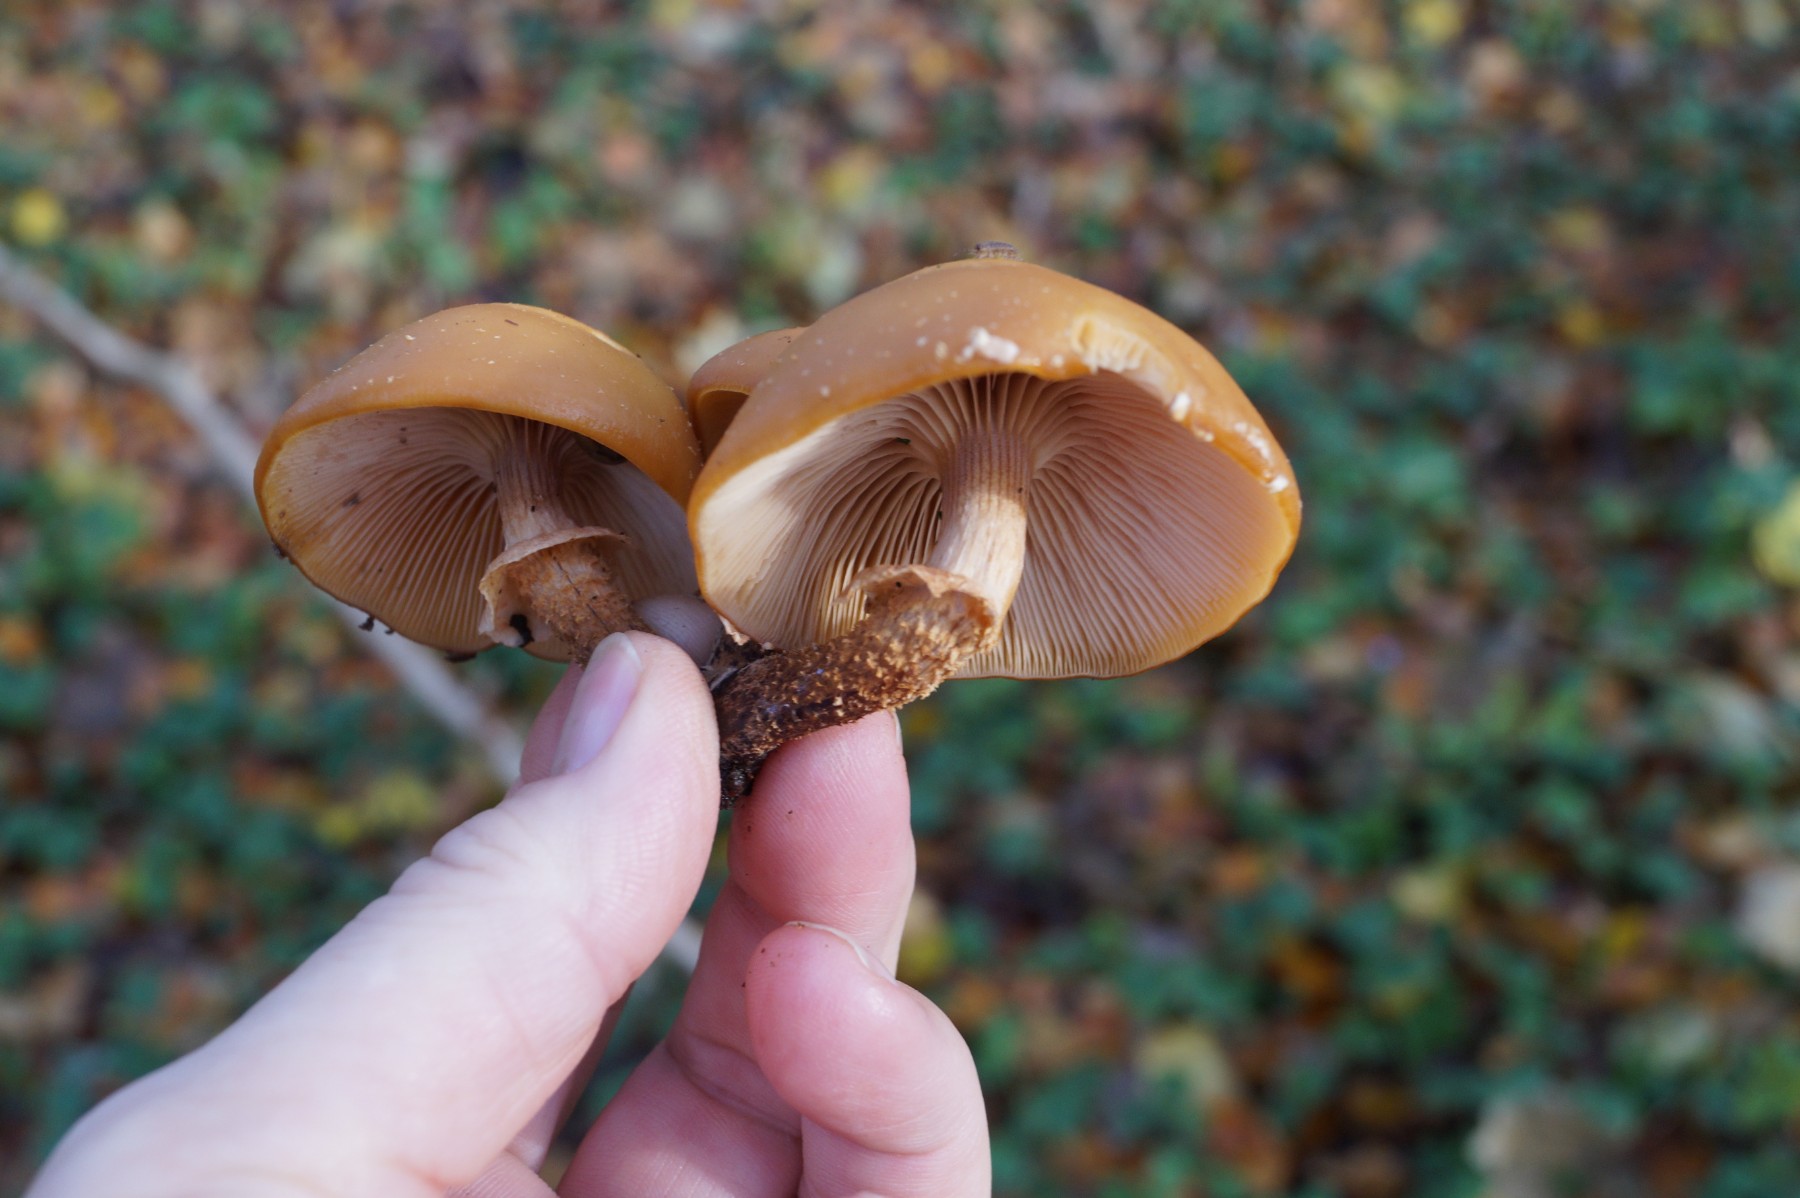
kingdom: Fungi
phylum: Basidiomycota
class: Agaricomycetes
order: Agaricales
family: Strophariaceae
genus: Kuehneromyces
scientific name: Kuehneromyces mutabilis
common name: foranderlig skælhat
